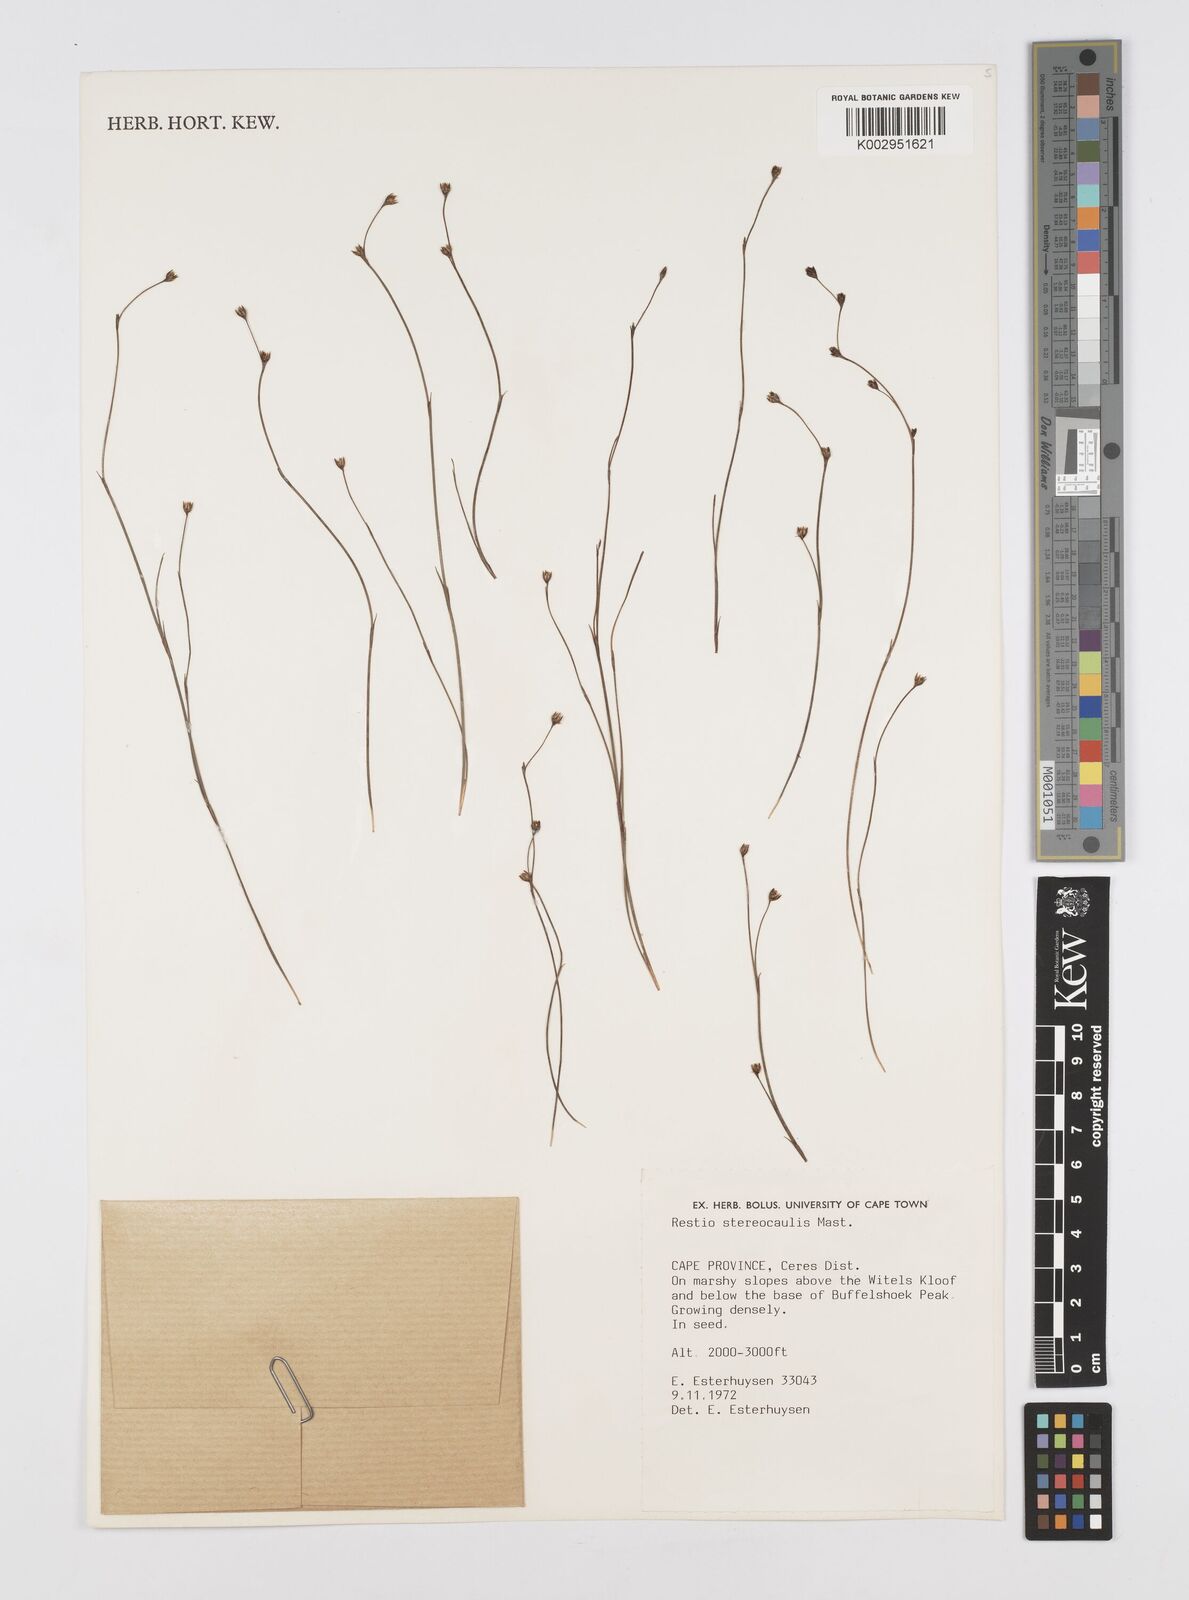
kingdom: Plantae
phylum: Tracheophyta
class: Liliopsida
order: Poales
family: Restionaceae
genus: Restio
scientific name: Restio stereocaulis
